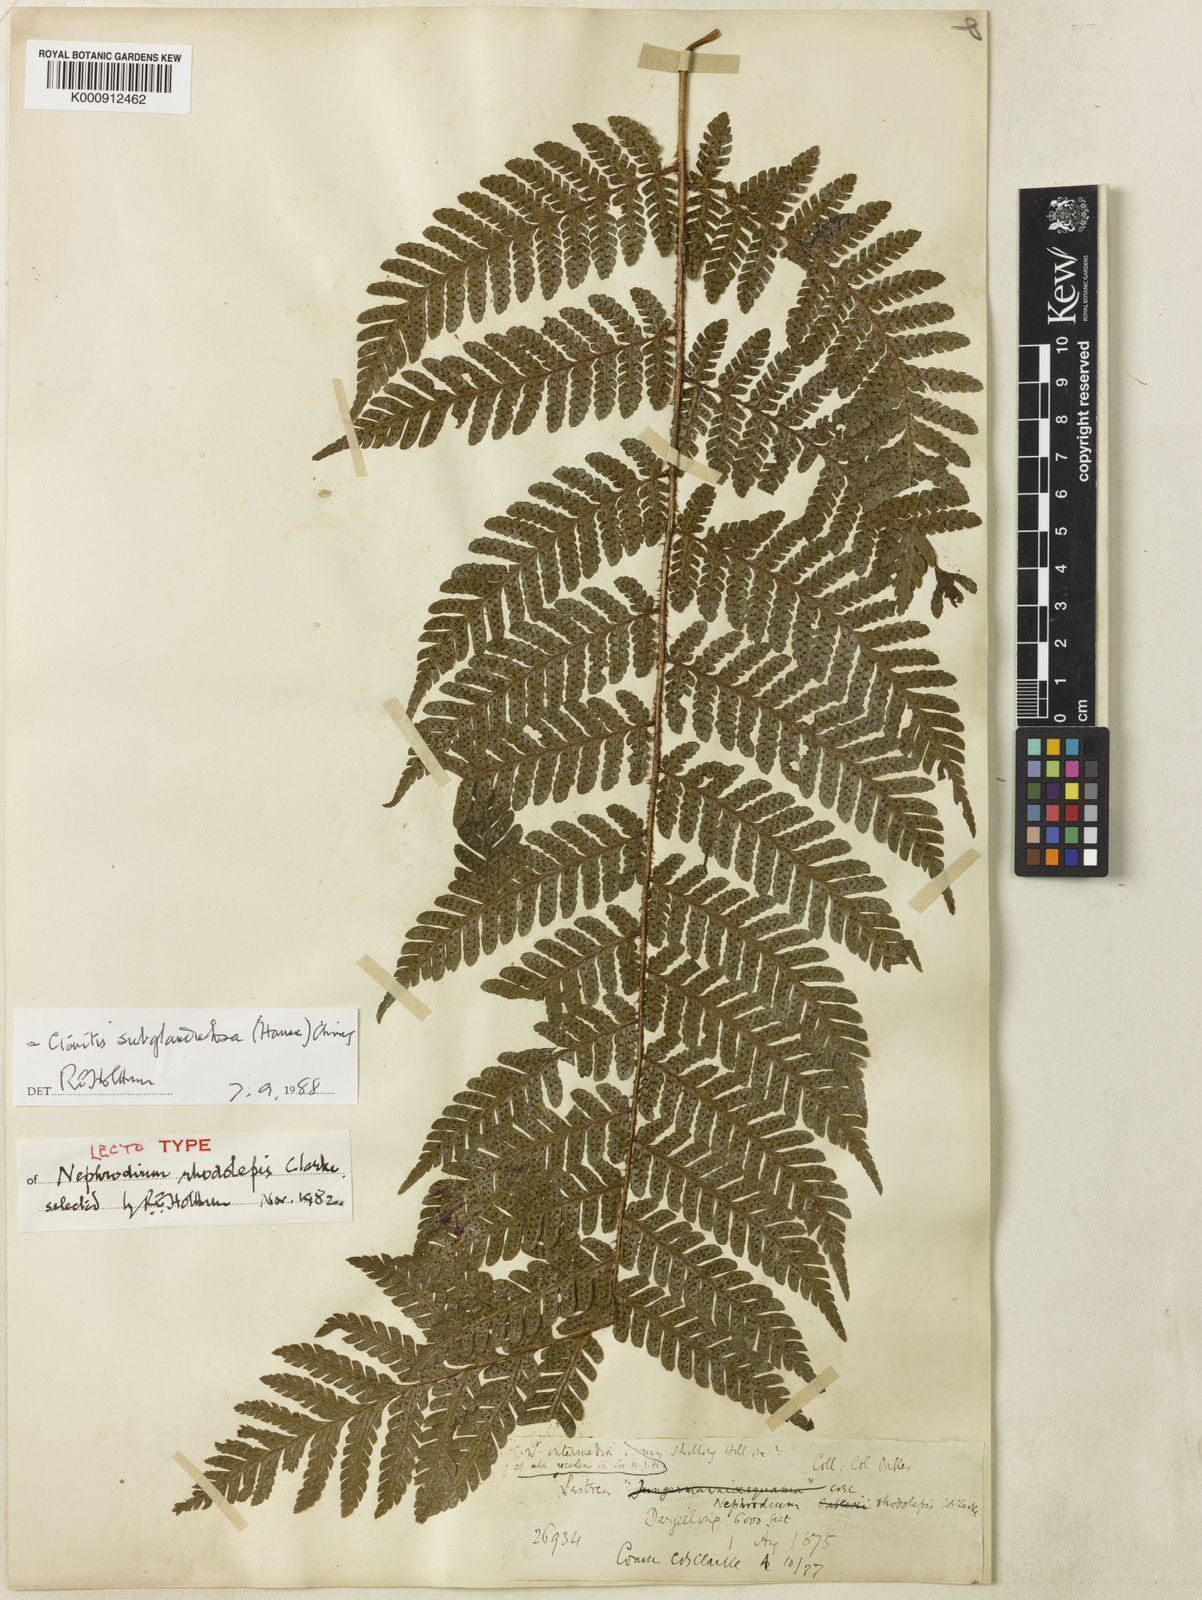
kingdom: Plantae
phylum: Tracheophyta
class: Polypodiopsida
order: Polypodiales
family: Dryopteridaceae
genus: Ctenitis
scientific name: Ctenitis subglandulosa
